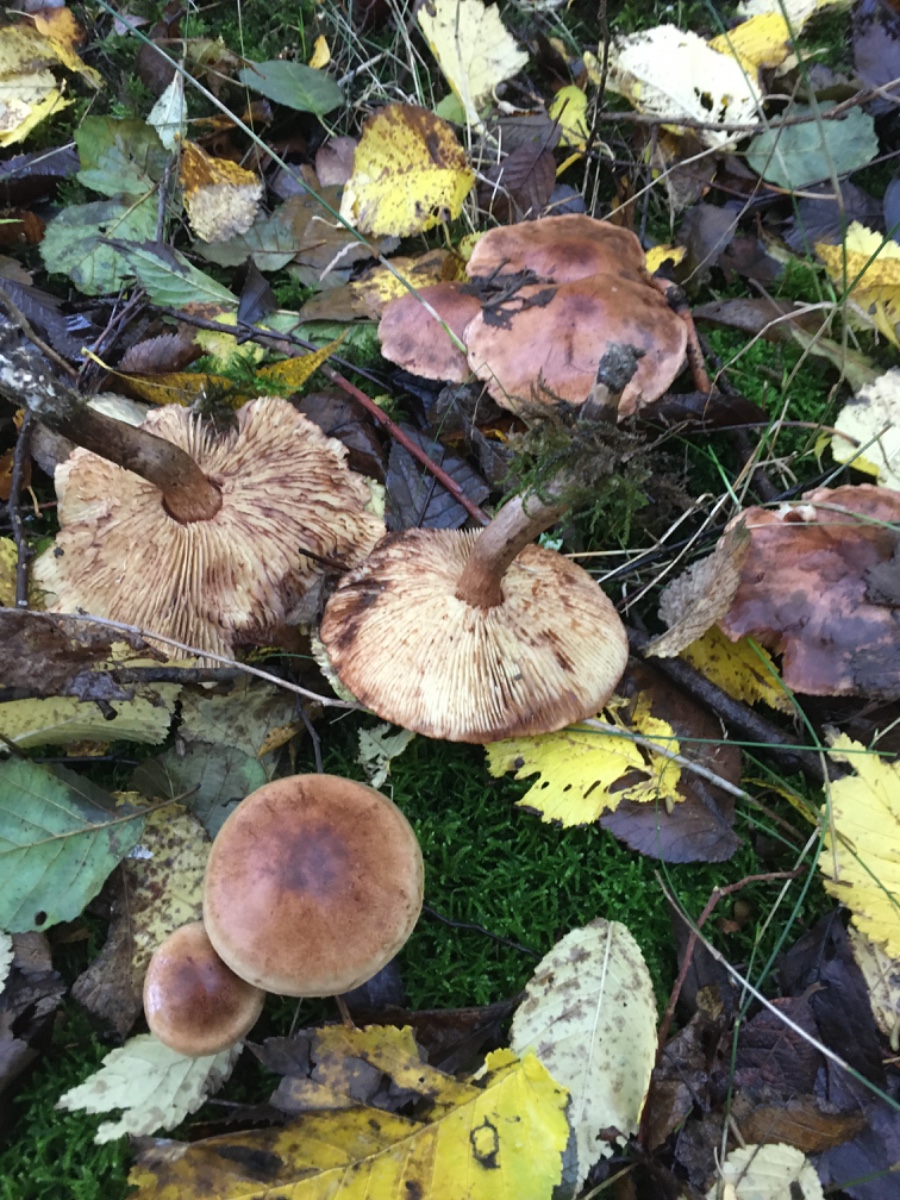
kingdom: Fungi
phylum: Basidiomycota
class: Agaricomycetes
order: Agaricales
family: Tricholomataceae
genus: Tricholoma
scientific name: Tricholoma fulvum
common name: birke-ridderhat
